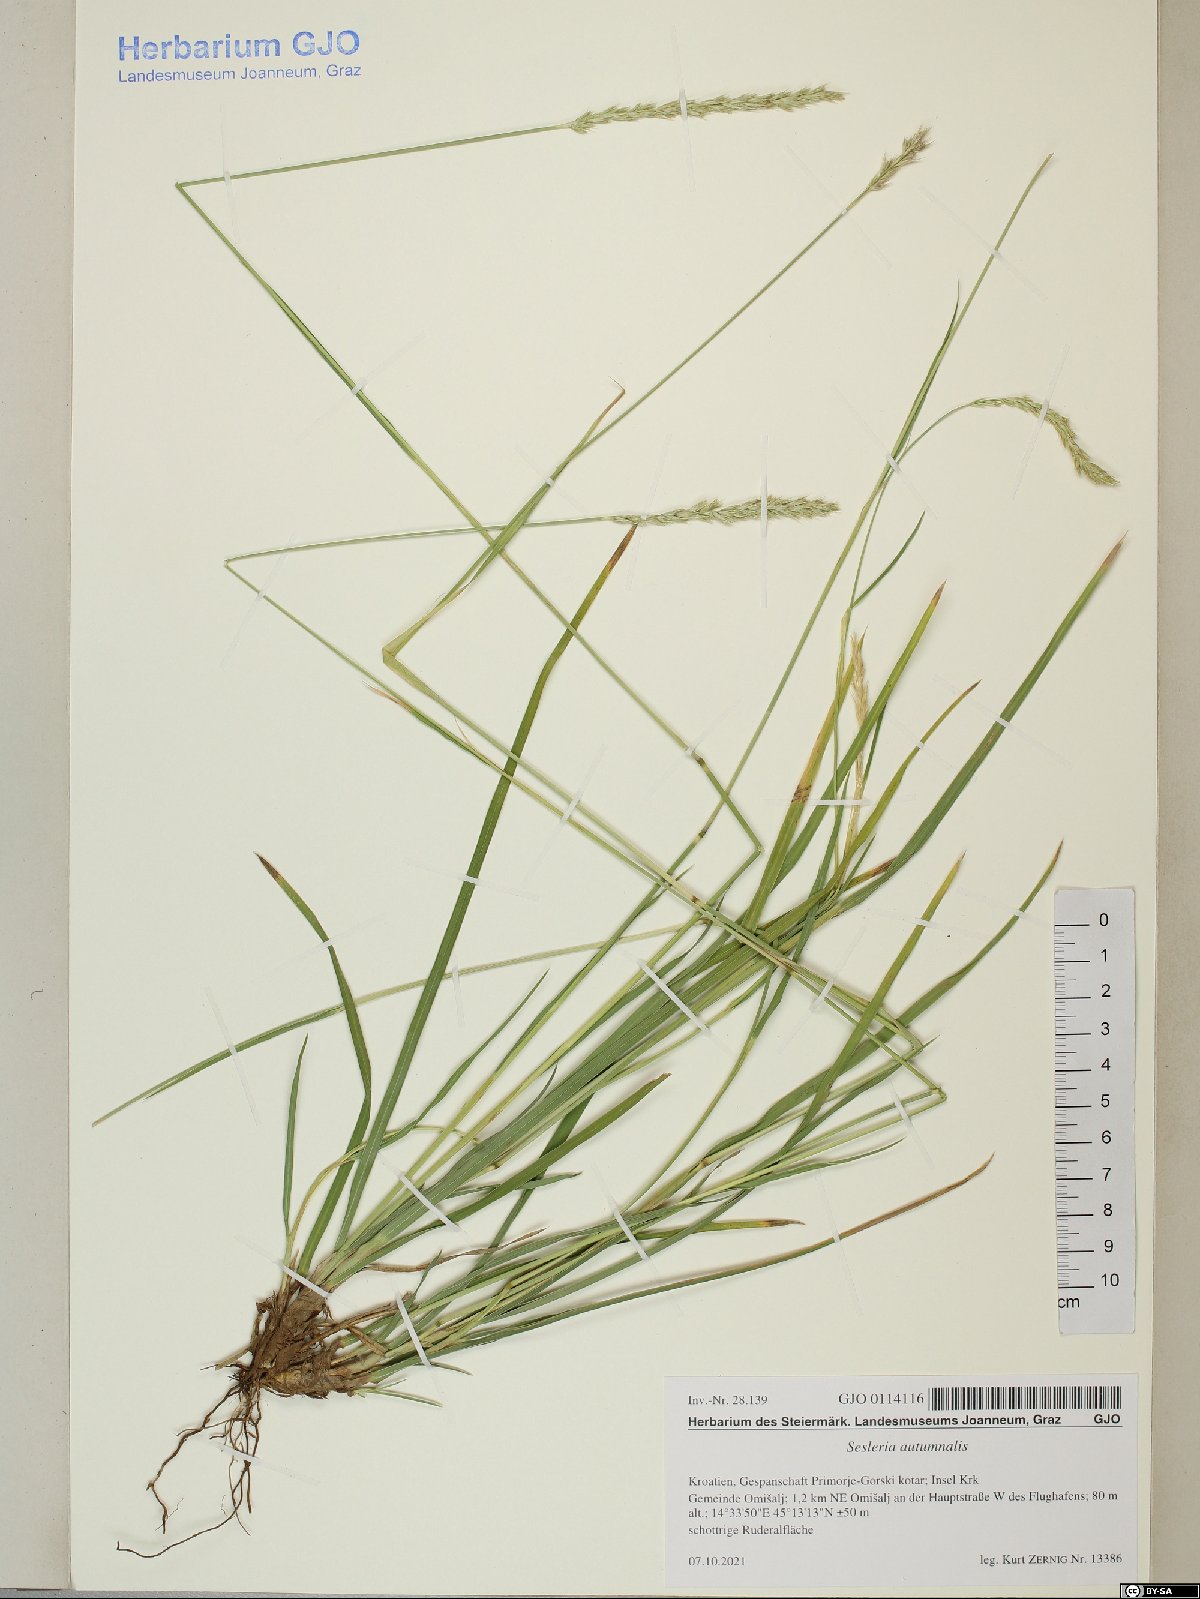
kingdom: Plantae
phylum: Tracheophyta
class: Liliopsida
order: Poales
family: Poaceae
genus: Sesleria
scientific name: Sesleria autumnalis
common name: Autumn moor grass
